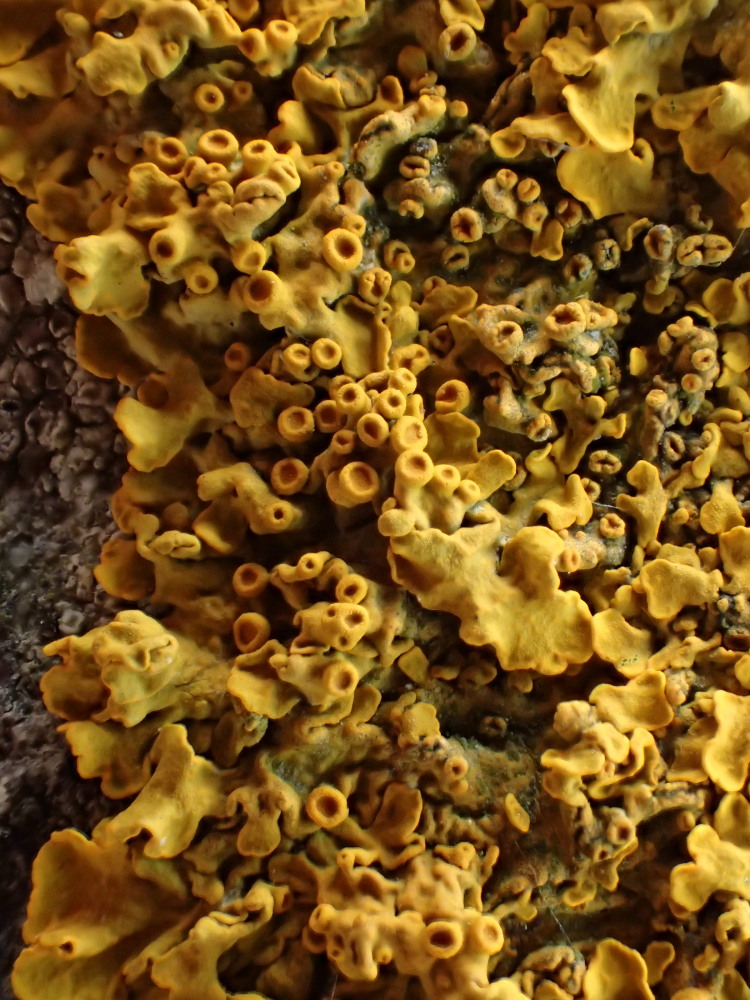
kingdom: Fungi
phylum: Ascomycota
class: Lecanoromycetes
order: Teloschistales
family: Teloschistaceae
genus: Xanthoria
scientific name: Xanthoria parietina
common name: almindelig væggelav
